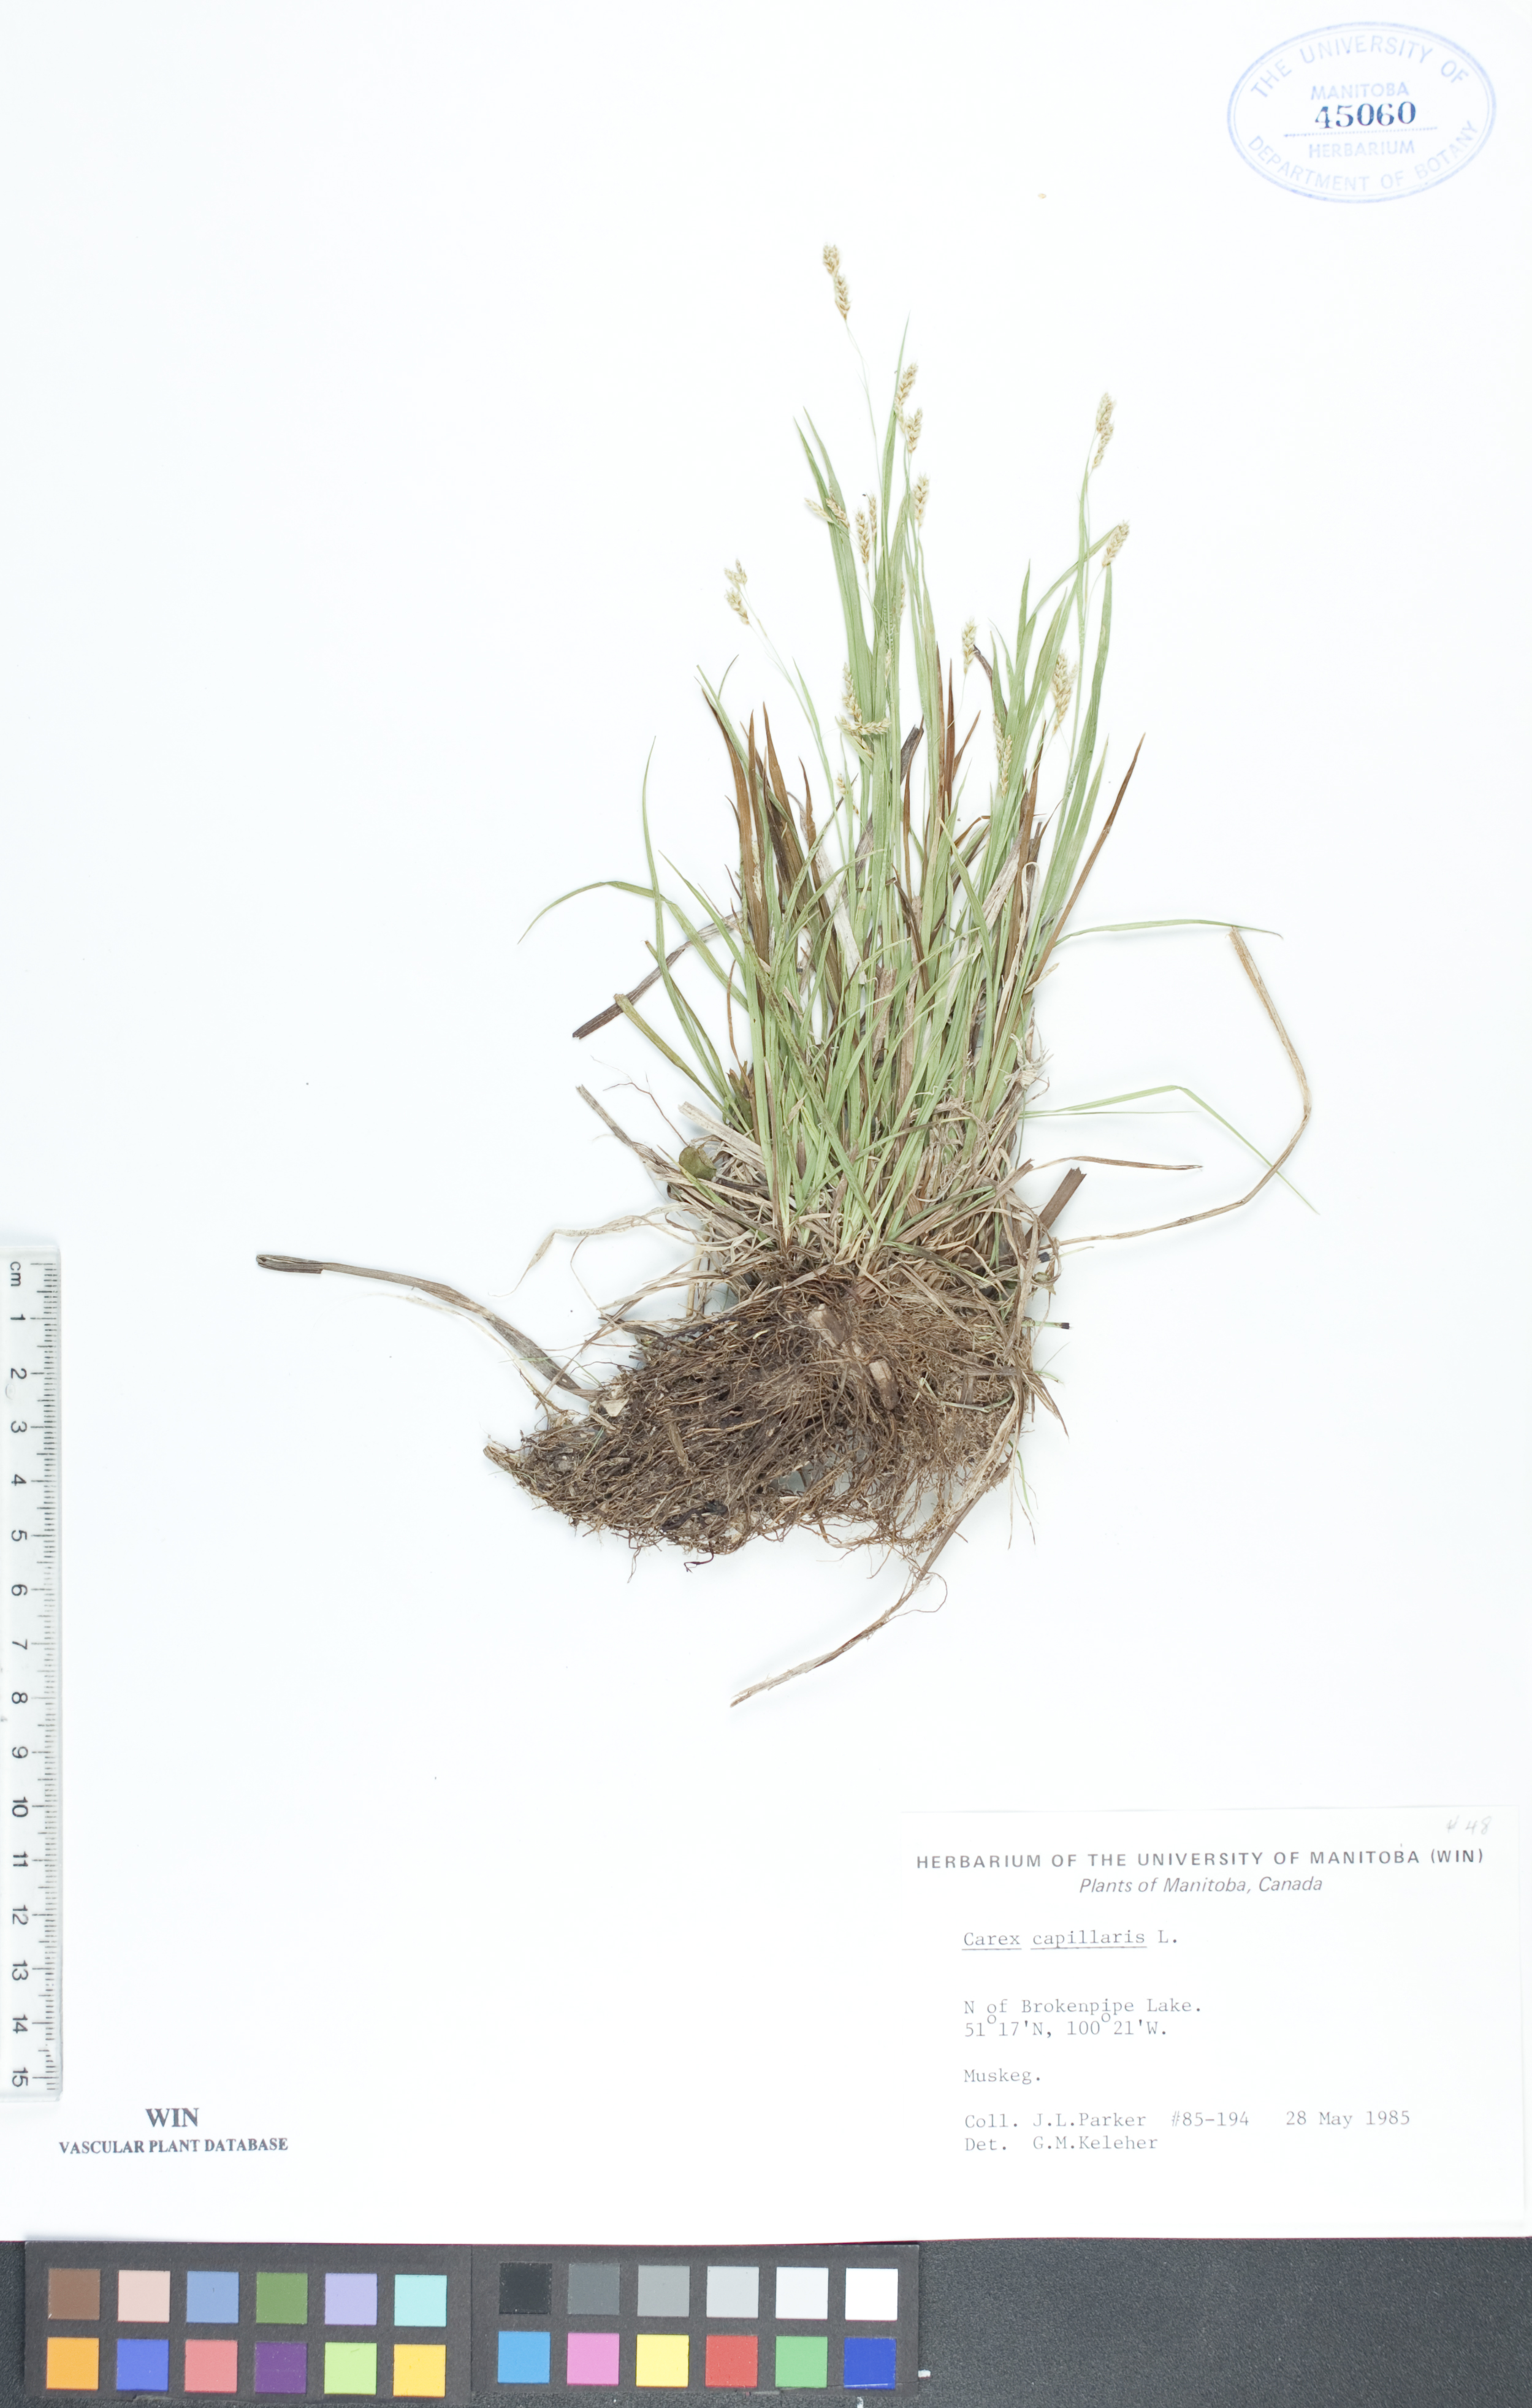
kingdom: Plantae
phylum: Tracheophyta
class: Liliopsida
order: Poales
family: Cyperaceae
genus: Carex
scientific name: Carex capillaris
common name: Hair sedge
